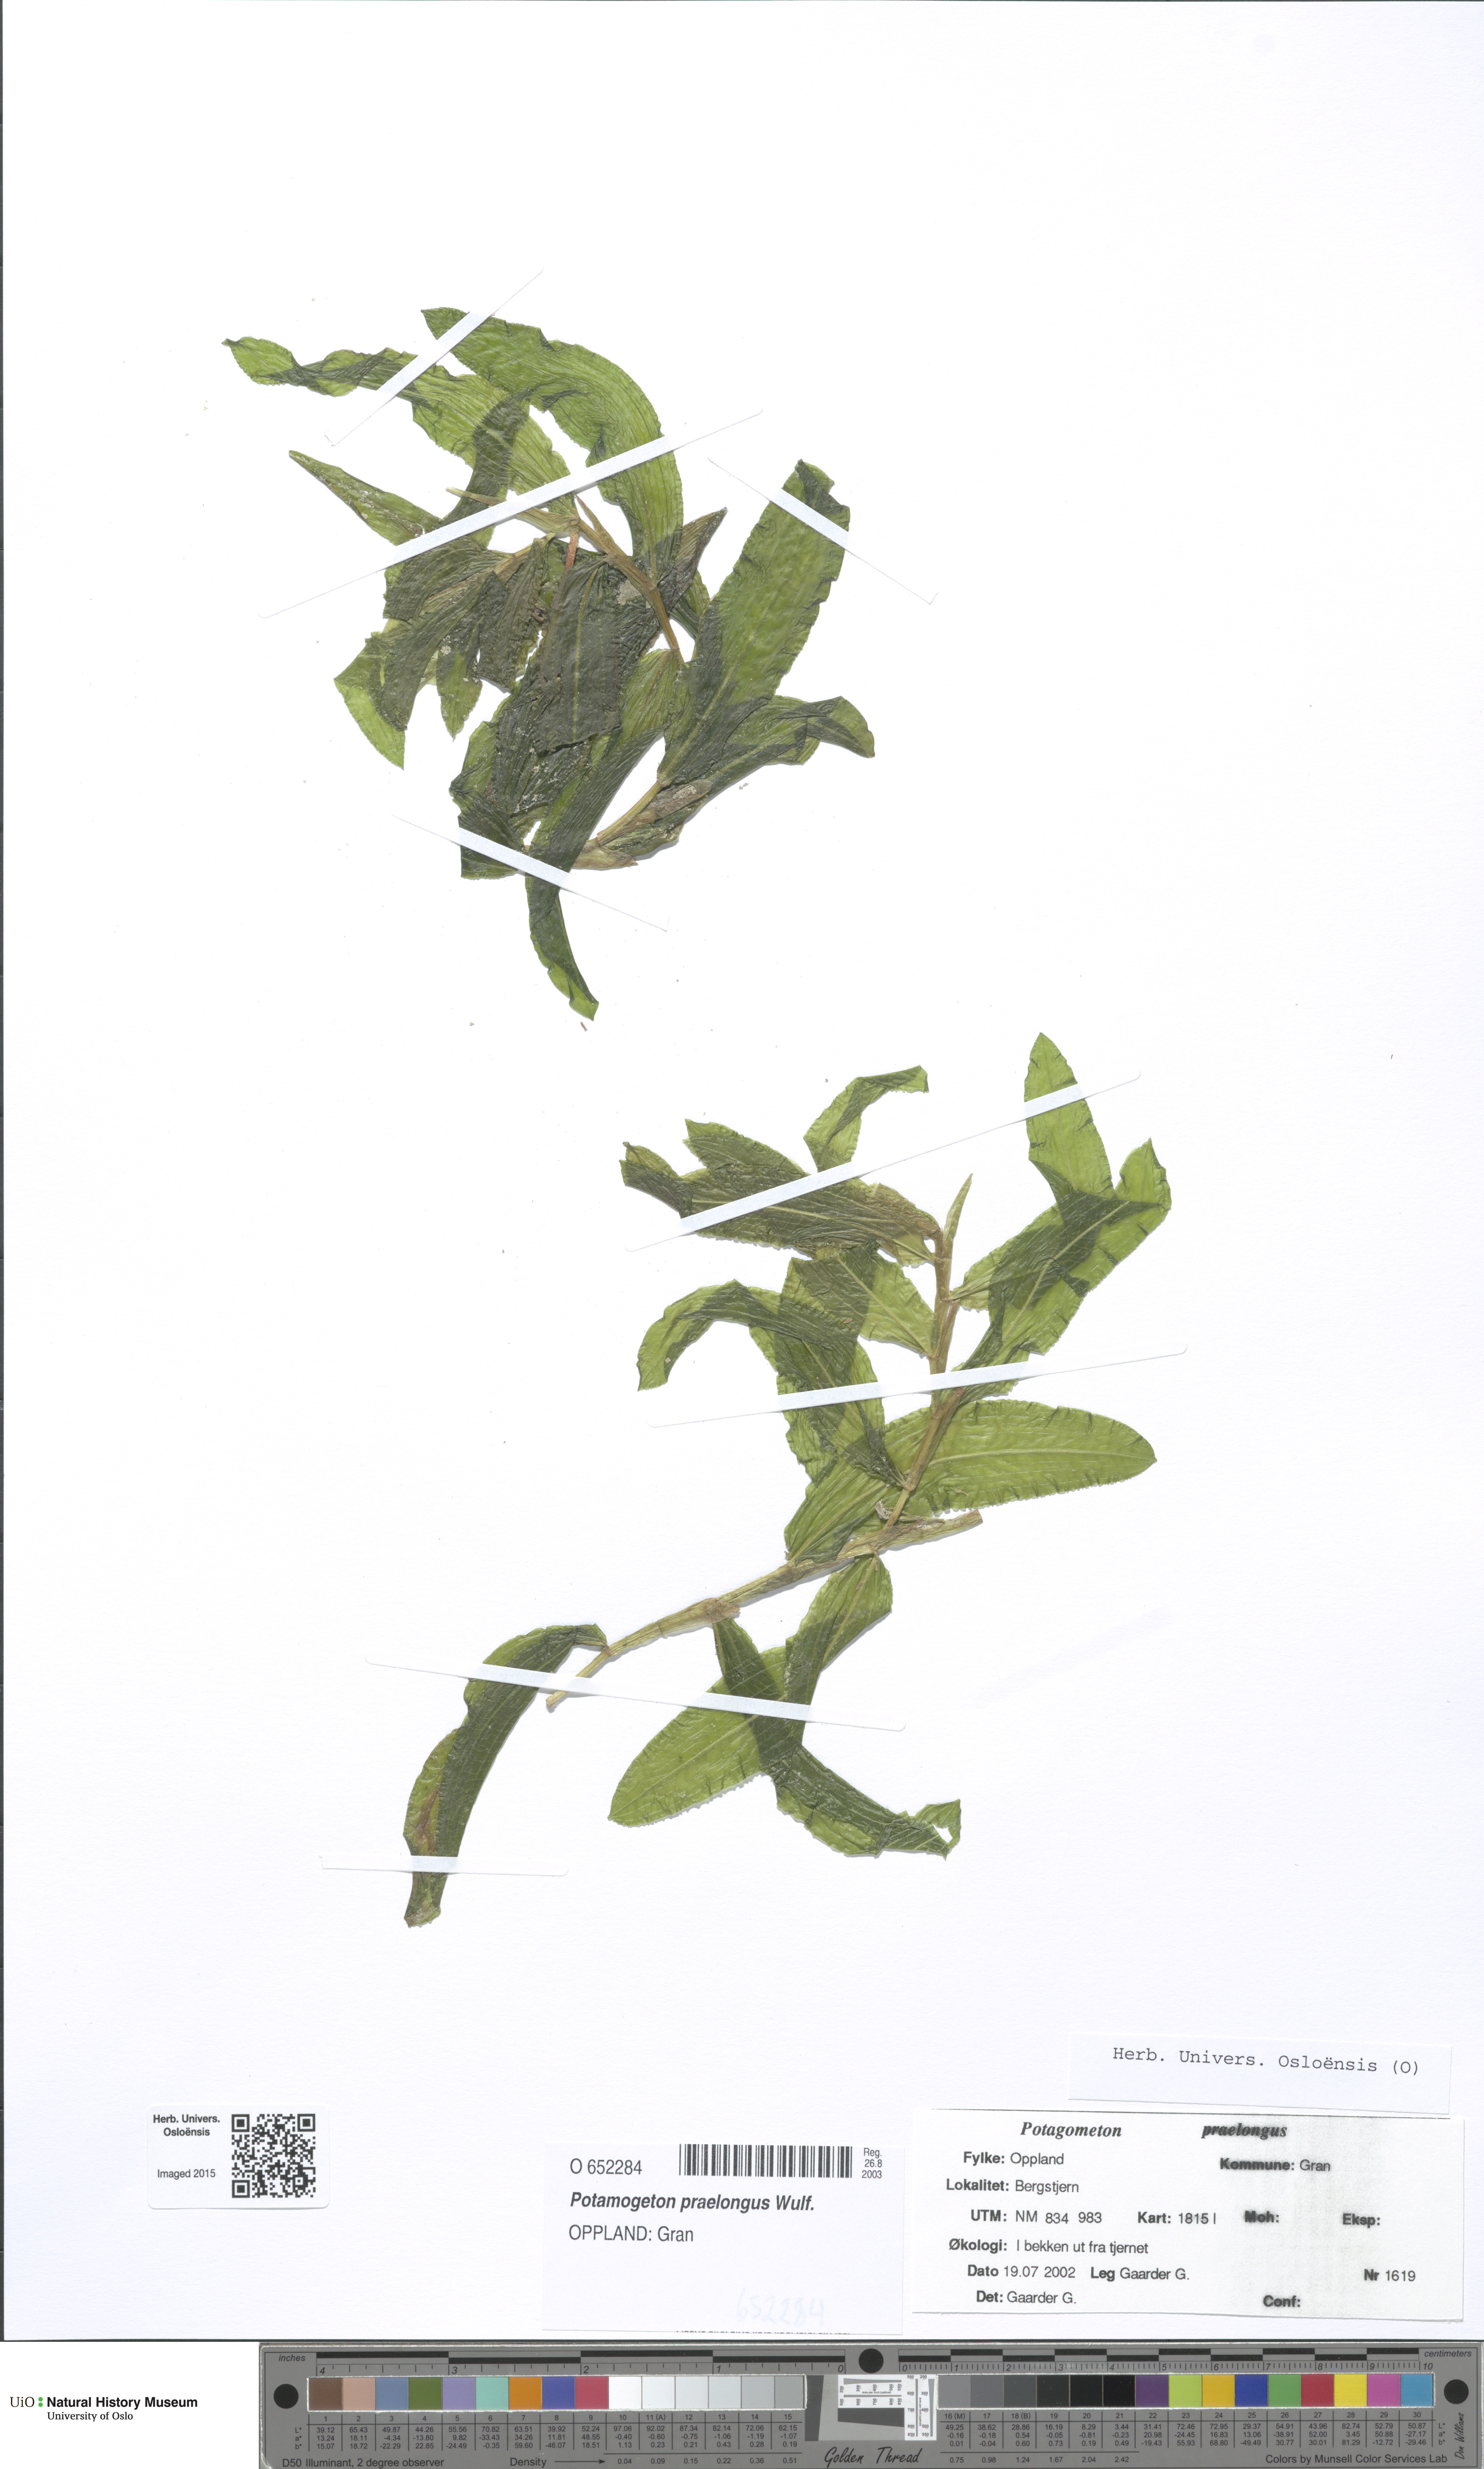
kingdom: Plantae
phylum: Tracheophyta
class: Liliopsida
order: Alismatales
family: Potamogetonaceae
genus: Potamogeton
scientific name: Potamogeton
